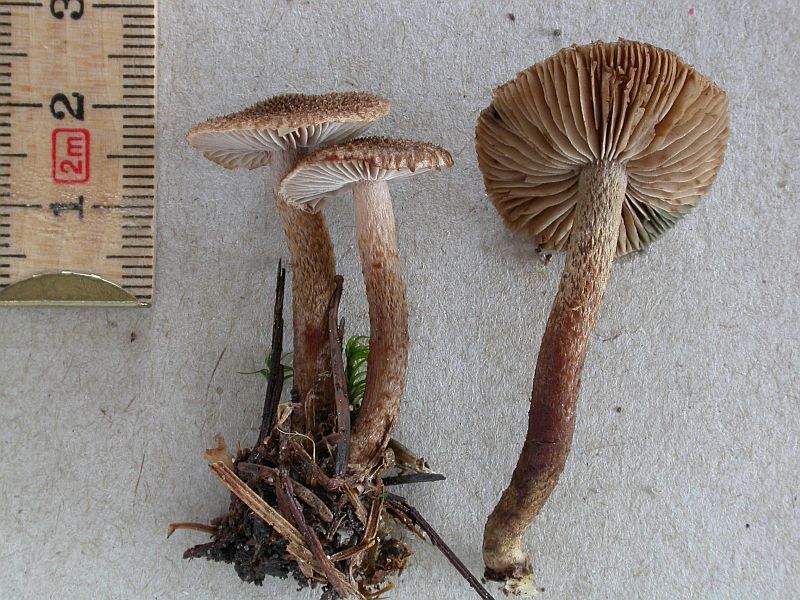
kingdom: Fungi
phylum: Basidiomycota
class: Agaricomycetes
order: Agaricales
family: Inocybaceae
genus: Inocybe
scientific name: Inocybe stellatospora
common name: spidsskællet trævlhat
